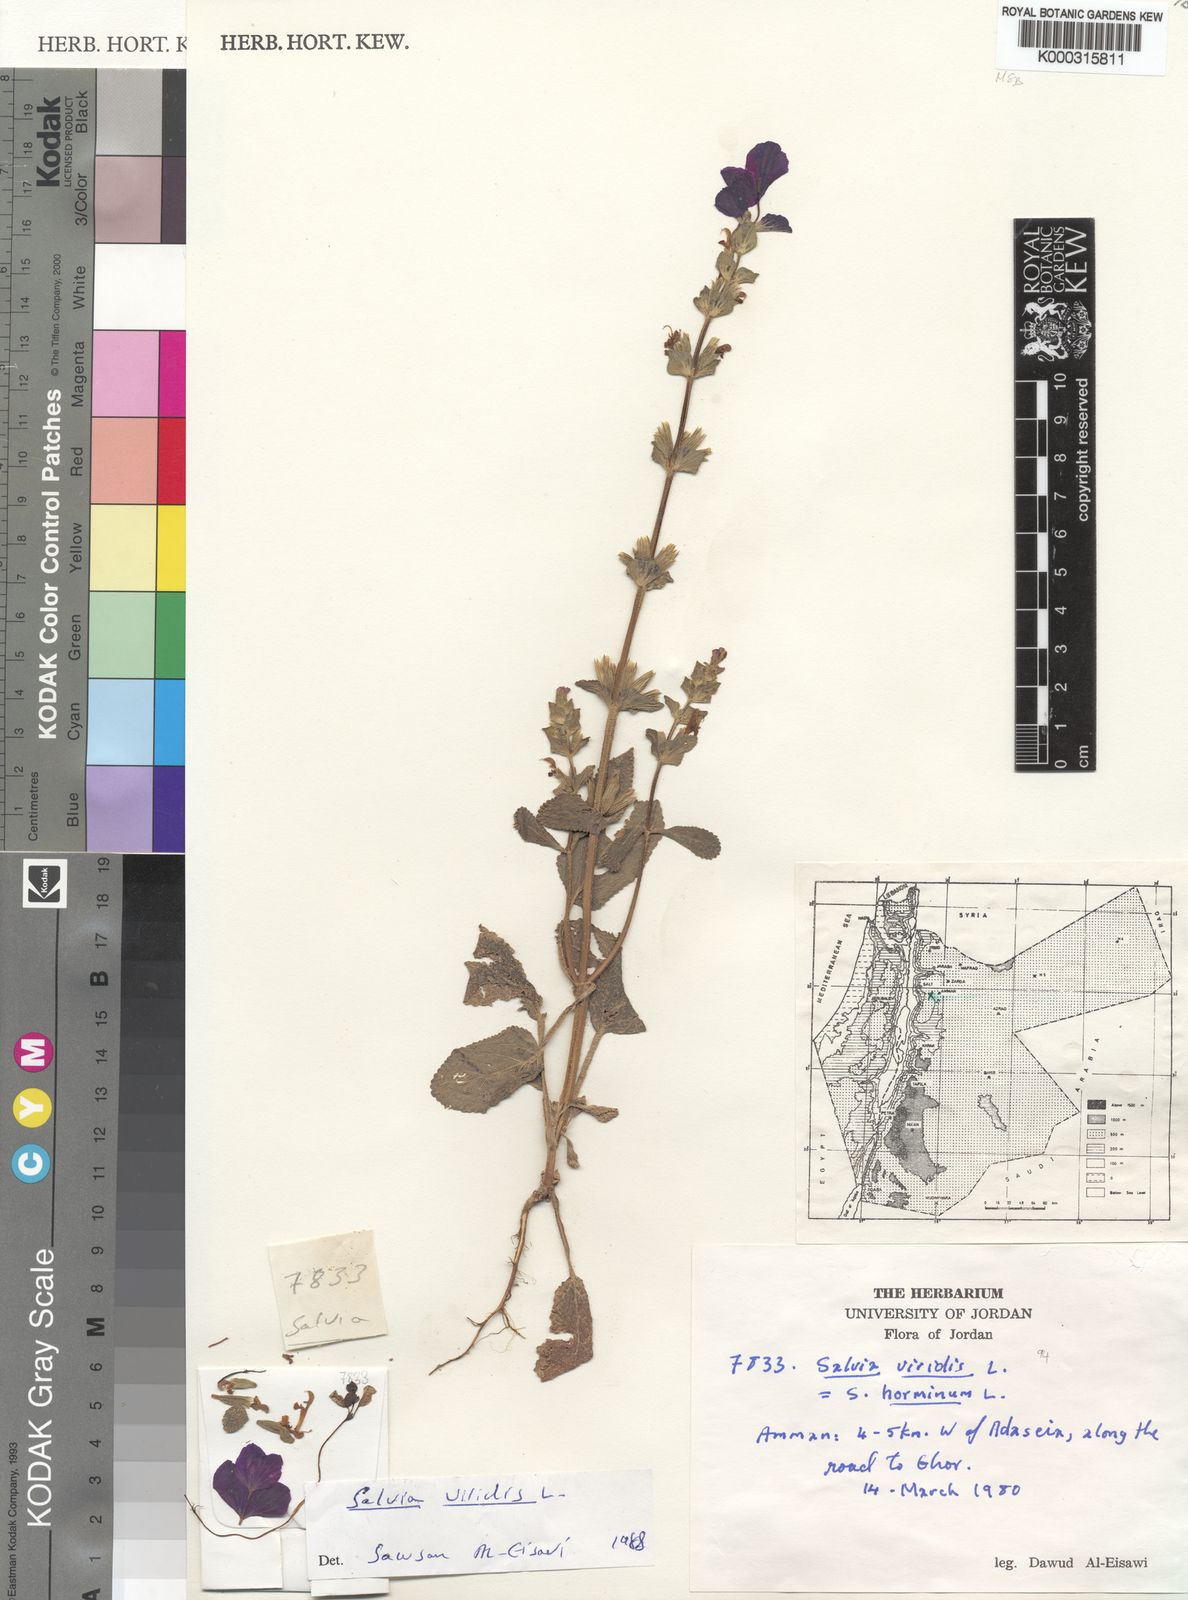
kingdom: Plantae
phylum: Tracheophyta
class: Magnoliopsida
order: Lamiales
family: Lamiaceae
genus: Salvia
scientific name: Salvia viridis
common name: Annual clary
